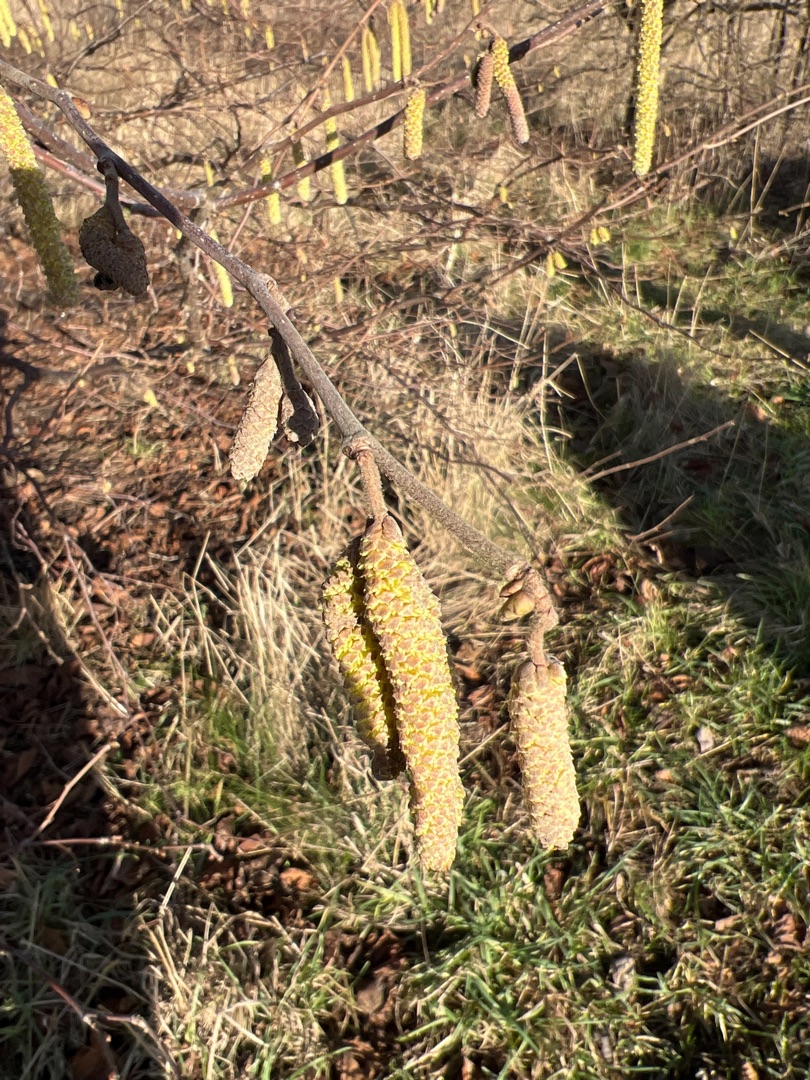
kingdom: Plantae
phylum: Tracheophyta
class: Magnoliopsida
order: Fagales
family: Betulaceae
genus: Corylus
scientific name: Corylus avellana
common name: Hassel
